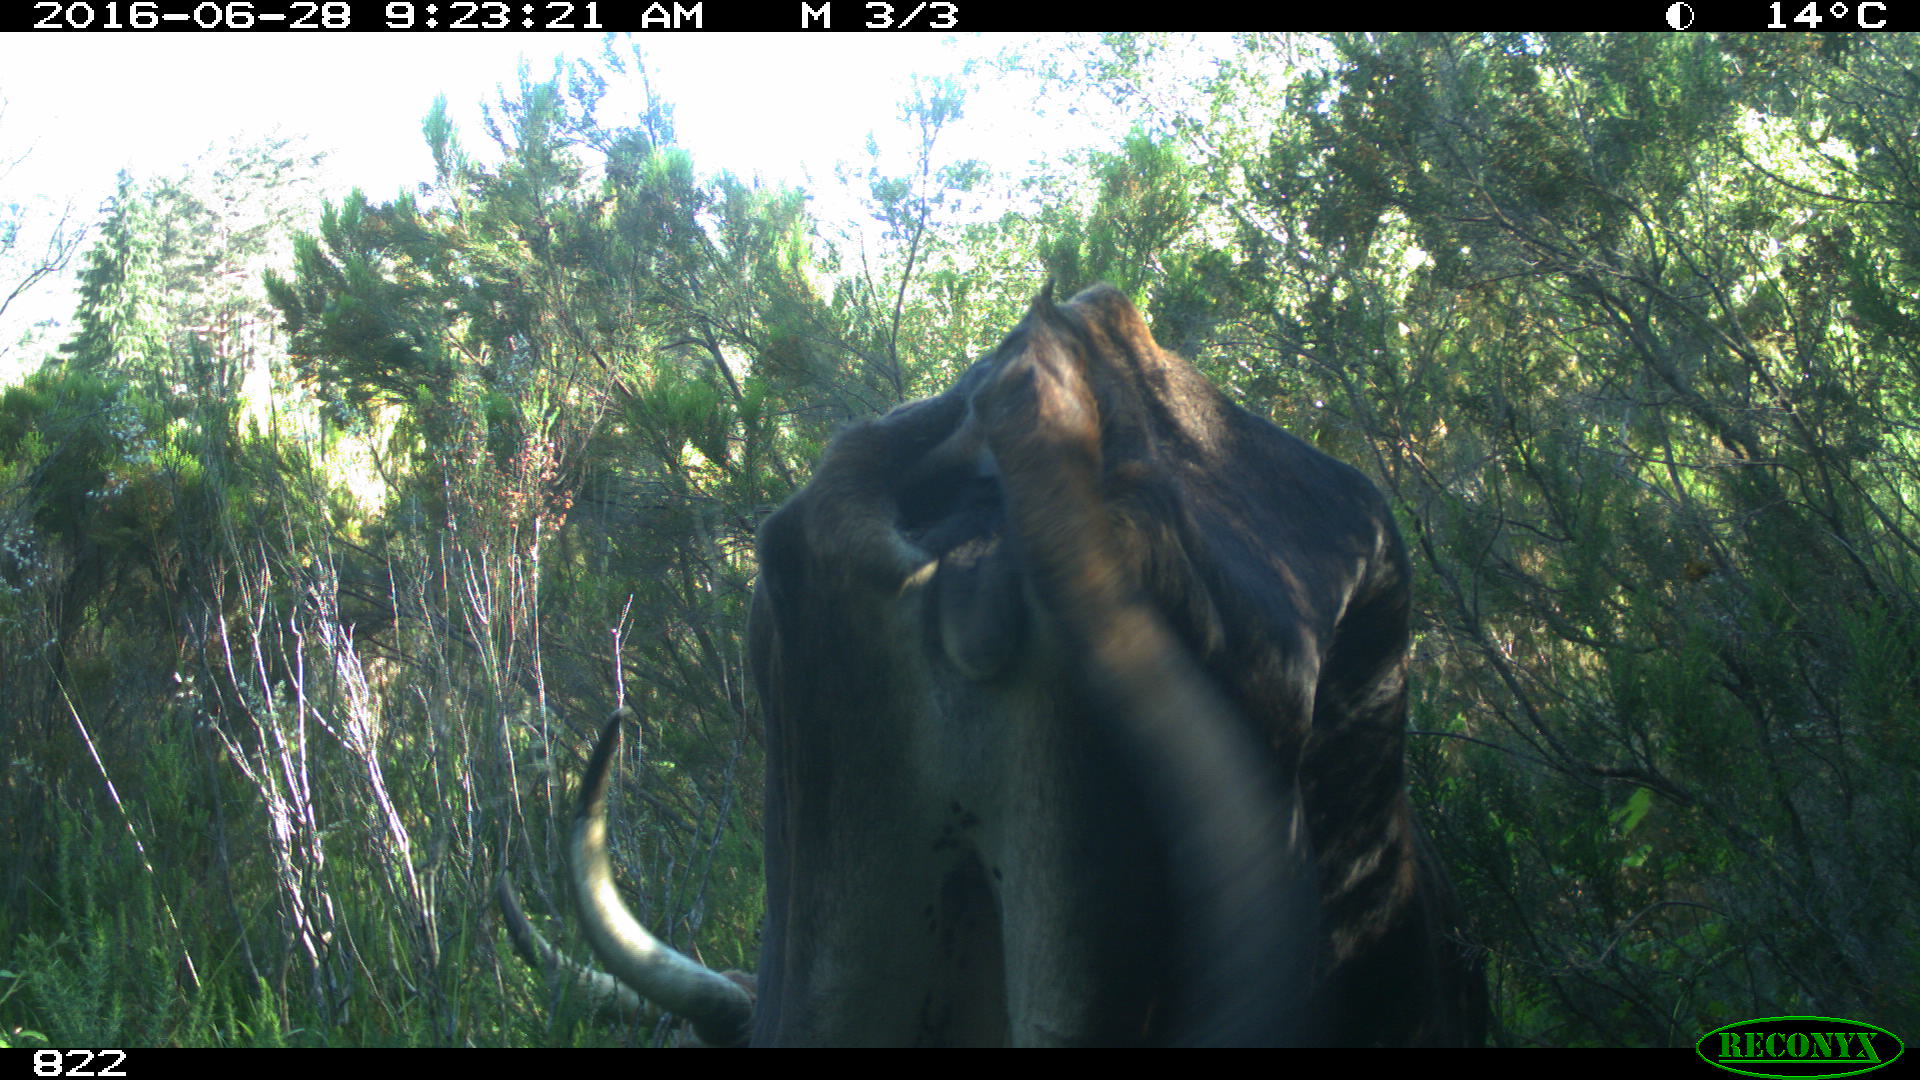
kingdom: Animalia
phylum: Chordata
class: Mammalia
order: Artiodactyla
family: Bovidae
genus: Bos
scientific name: Bos taurus
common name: Domesticated cattle
